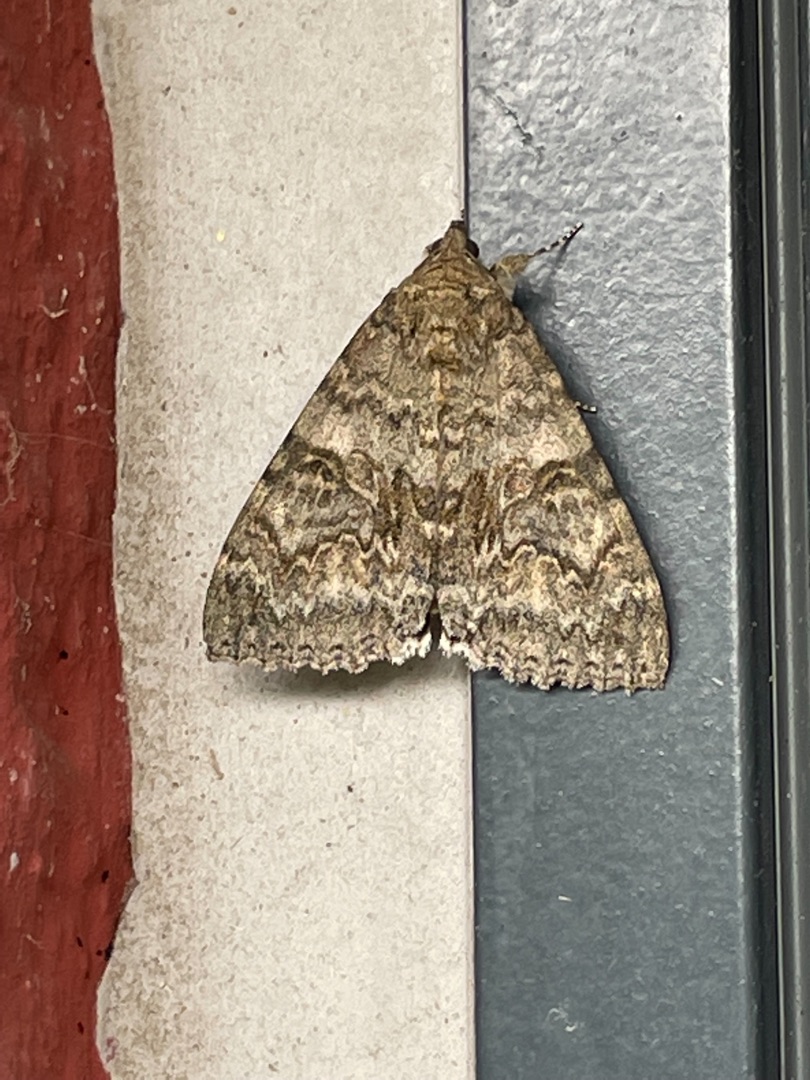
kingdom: Animalia
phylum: Arthropoda
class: Insecta
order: Lepidoptera
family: Erebidae
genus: Catocala
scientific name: Catocala nupta
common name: Rødt ordensbånd
